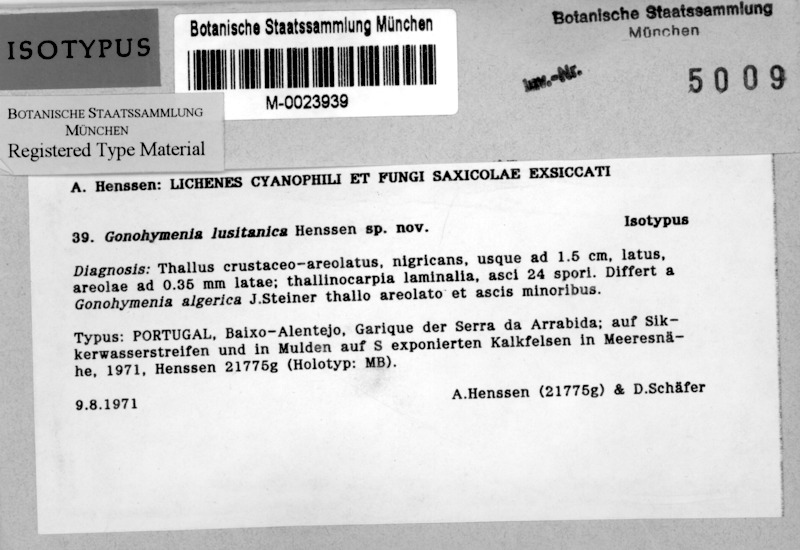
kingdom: Fungi
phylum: Ascomycota
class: Lichinomycetes
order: Lichinales
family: Lichinaceae
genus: Gonohymenia
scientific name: Gonohymenia lusitanica
